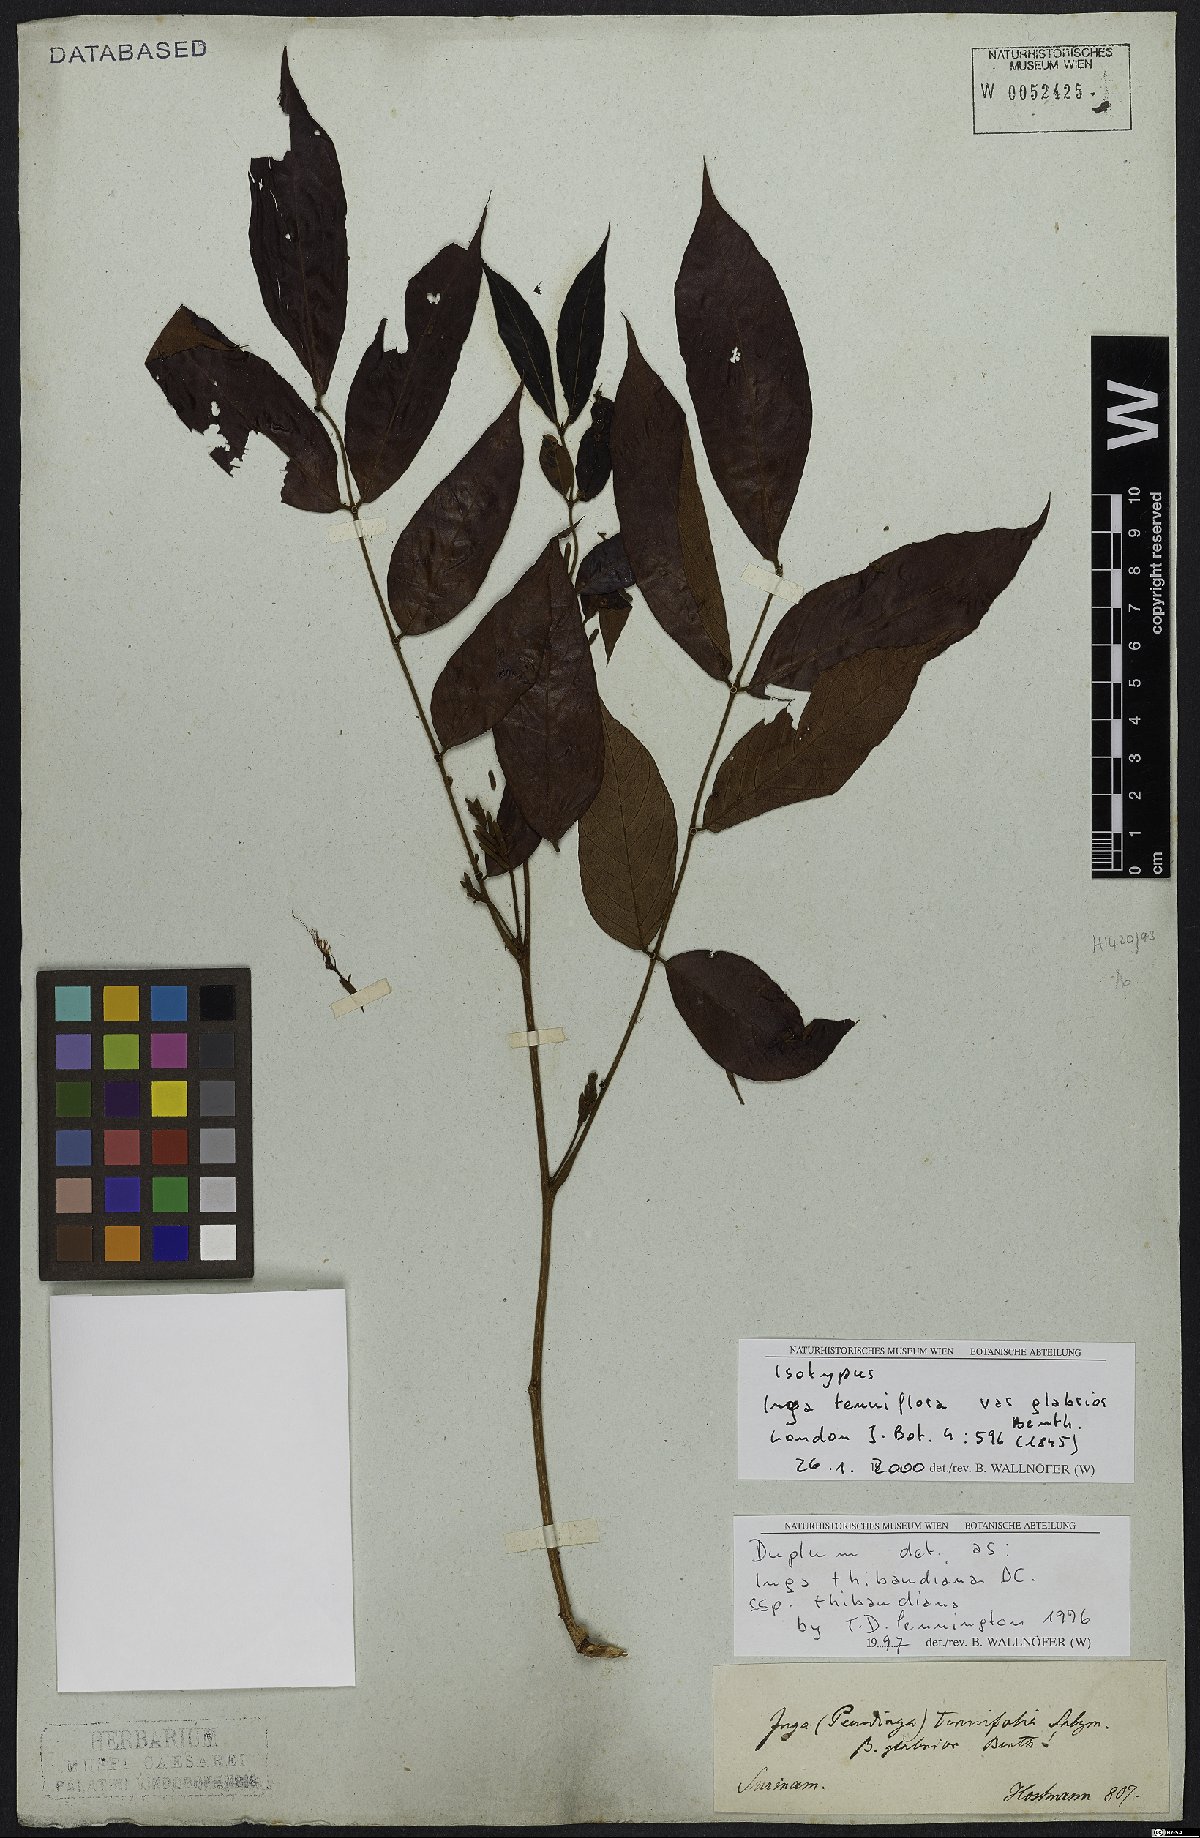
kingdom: Plantae
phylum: Tracheophyta
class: Magnoliopsida
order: Fabales
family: Fabaceae
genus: Inga
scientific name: Inga thibaudiana
